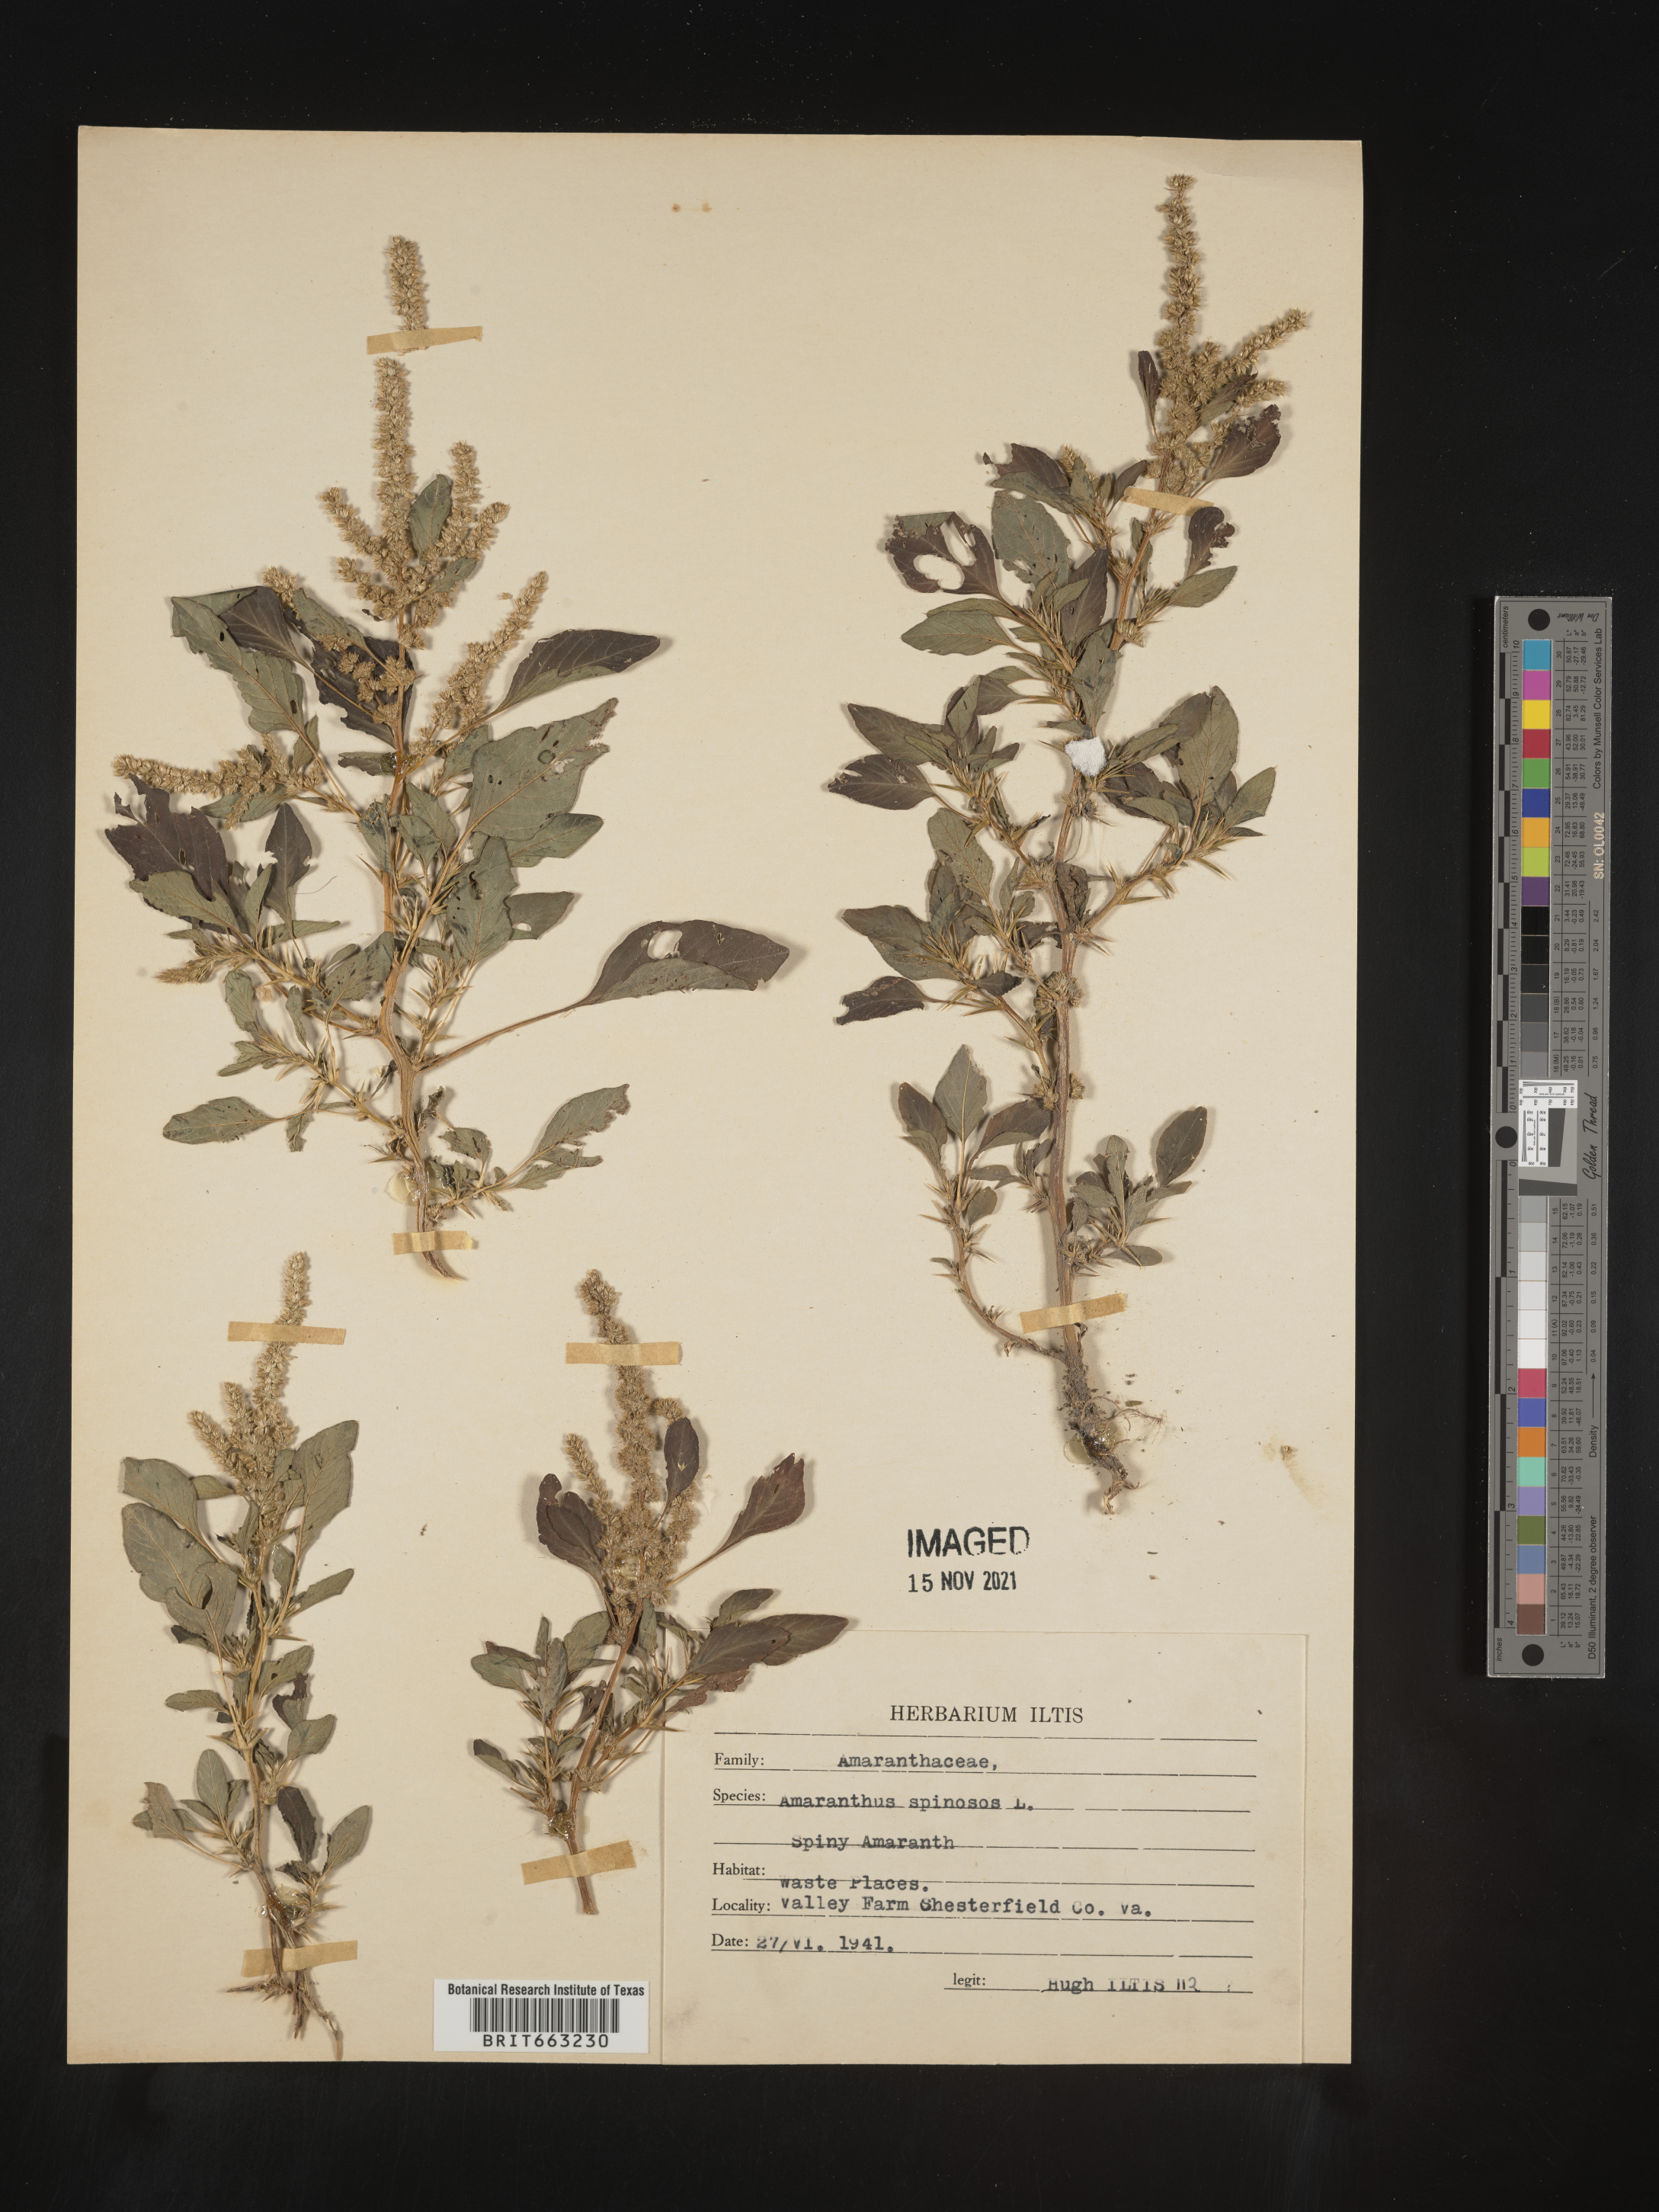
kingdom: Plantae
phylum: Tracheophyta
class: Magnoliopsida
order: Caryophyllales
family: Amaranthaceae
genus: Amaranthus
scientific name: Amaranthus spinosus
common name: Spiny amaranth
